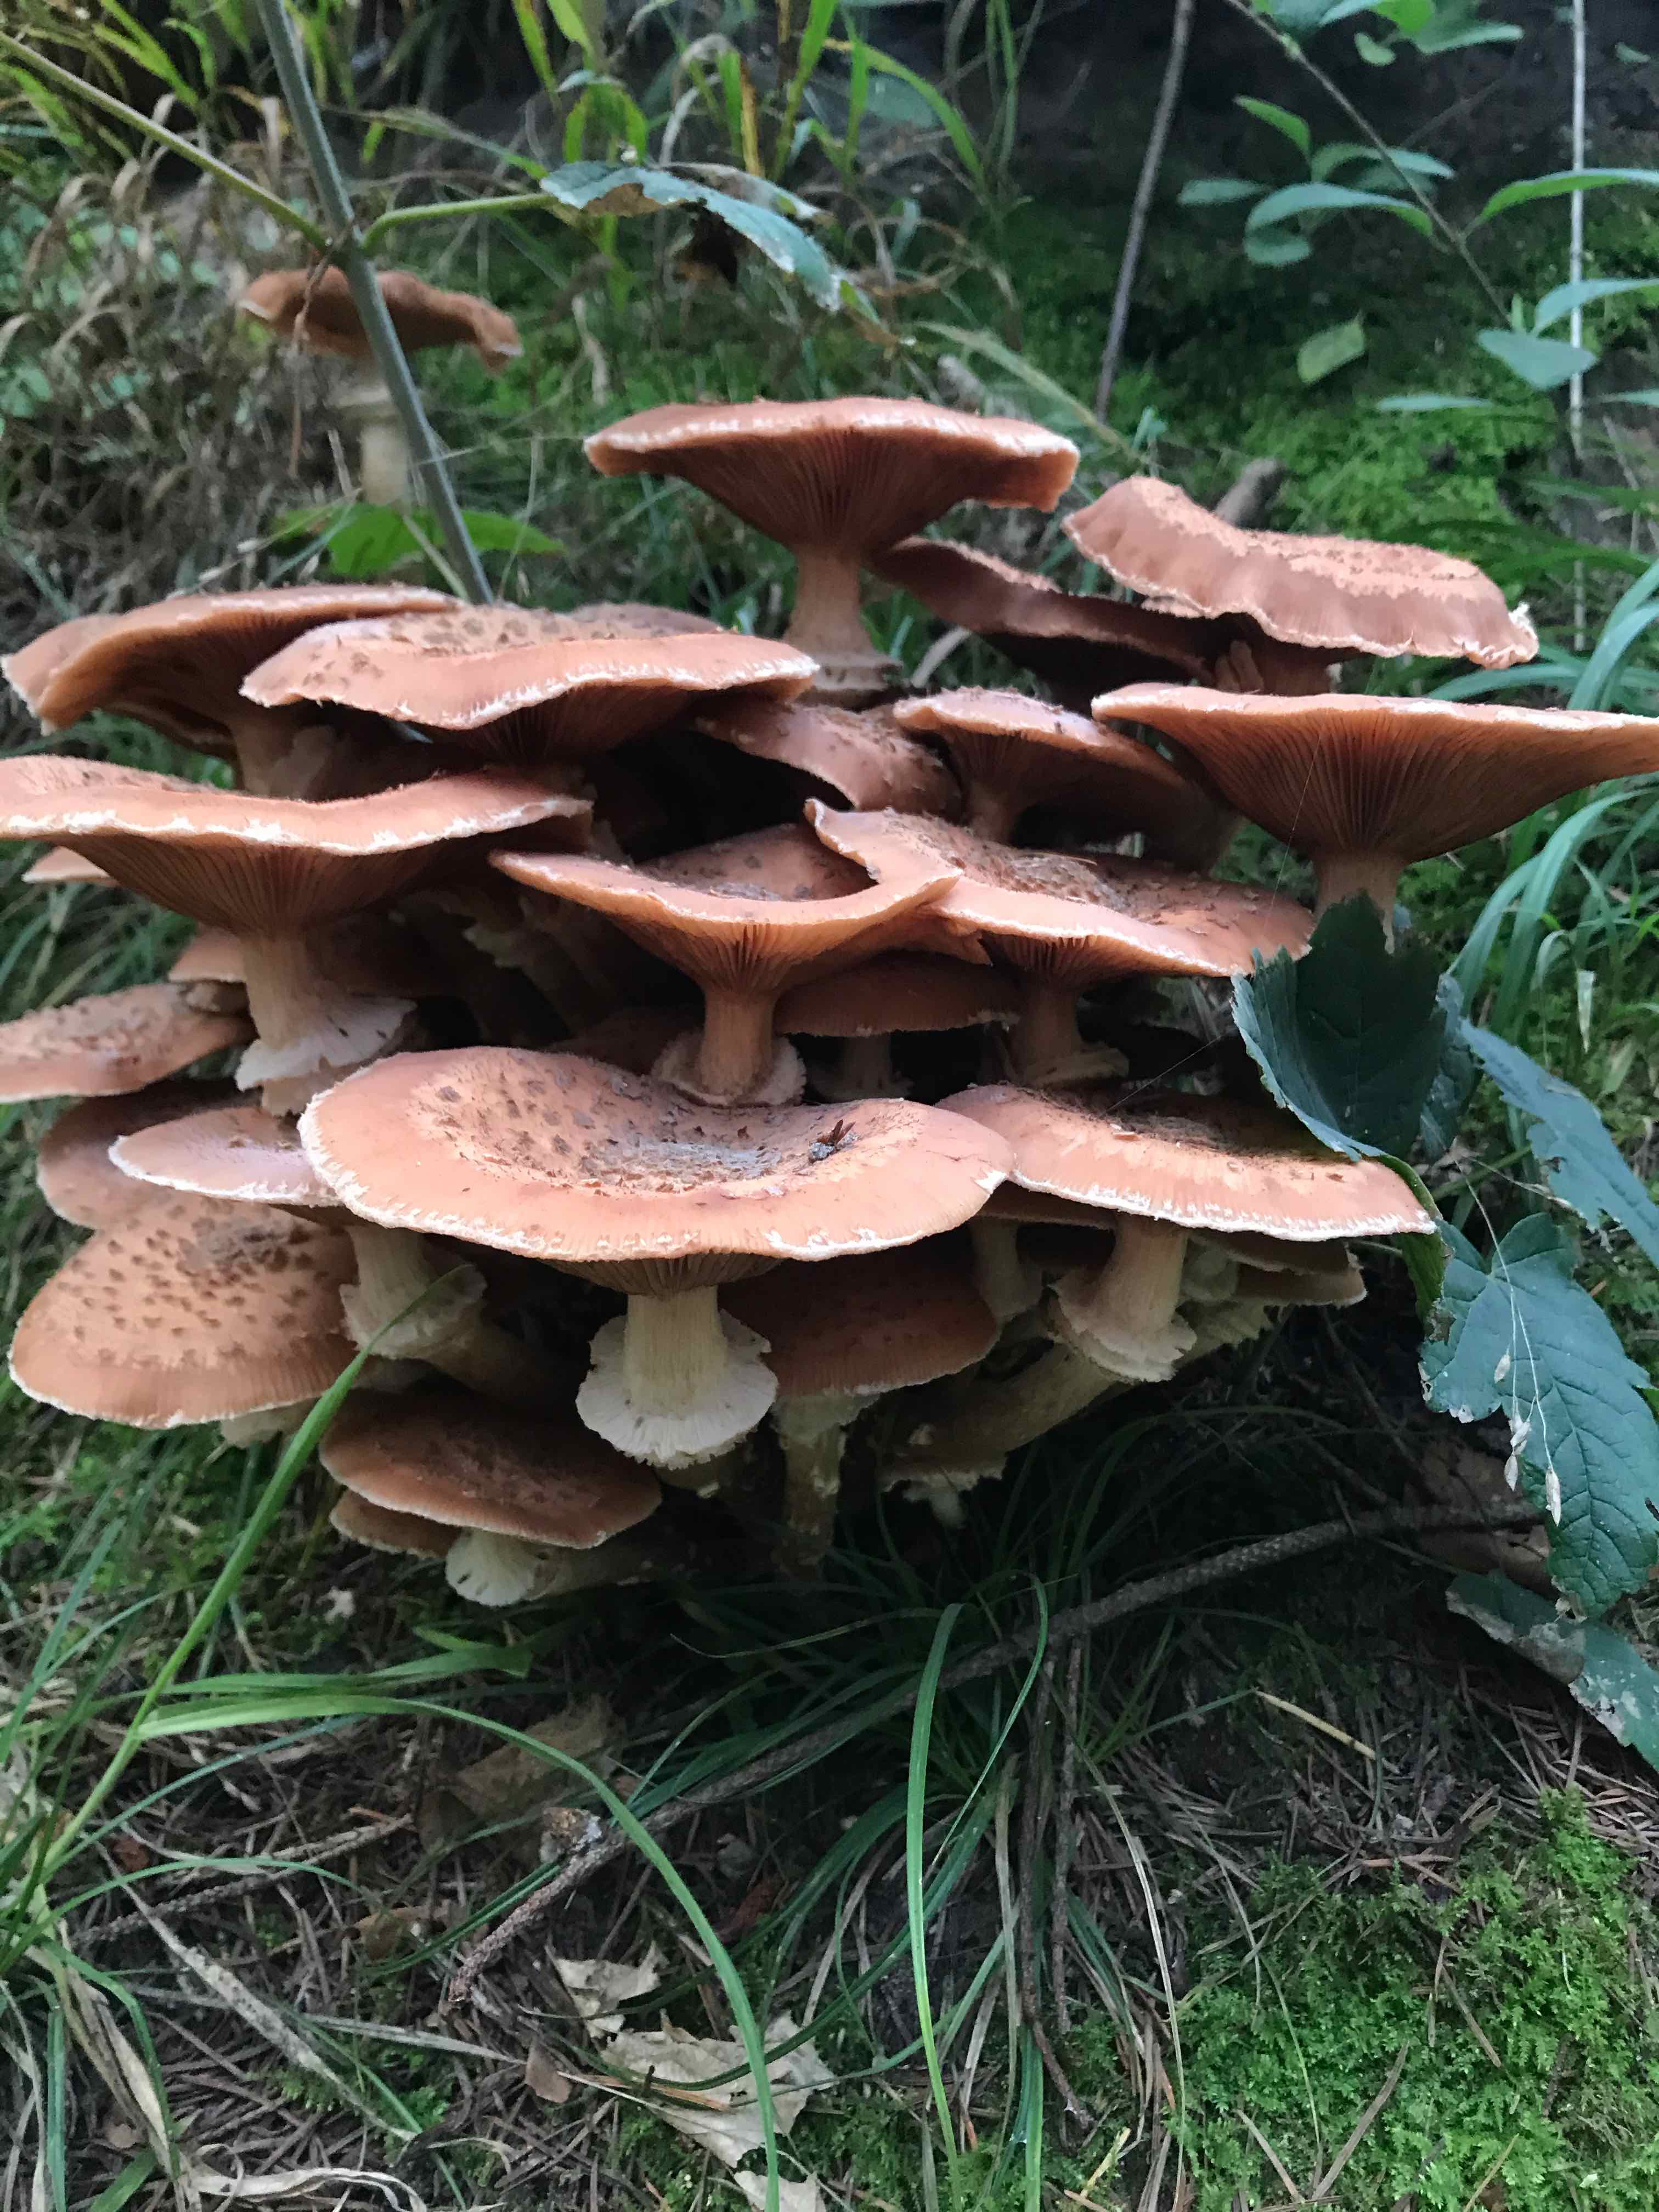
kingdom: Fungi
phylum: Basidiomycota
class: Agaricomycetes
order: Agaricales
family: Physalacriaceae
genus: Armillaria
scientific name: Armillaria ostoyae
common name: mørk honningsvamp
